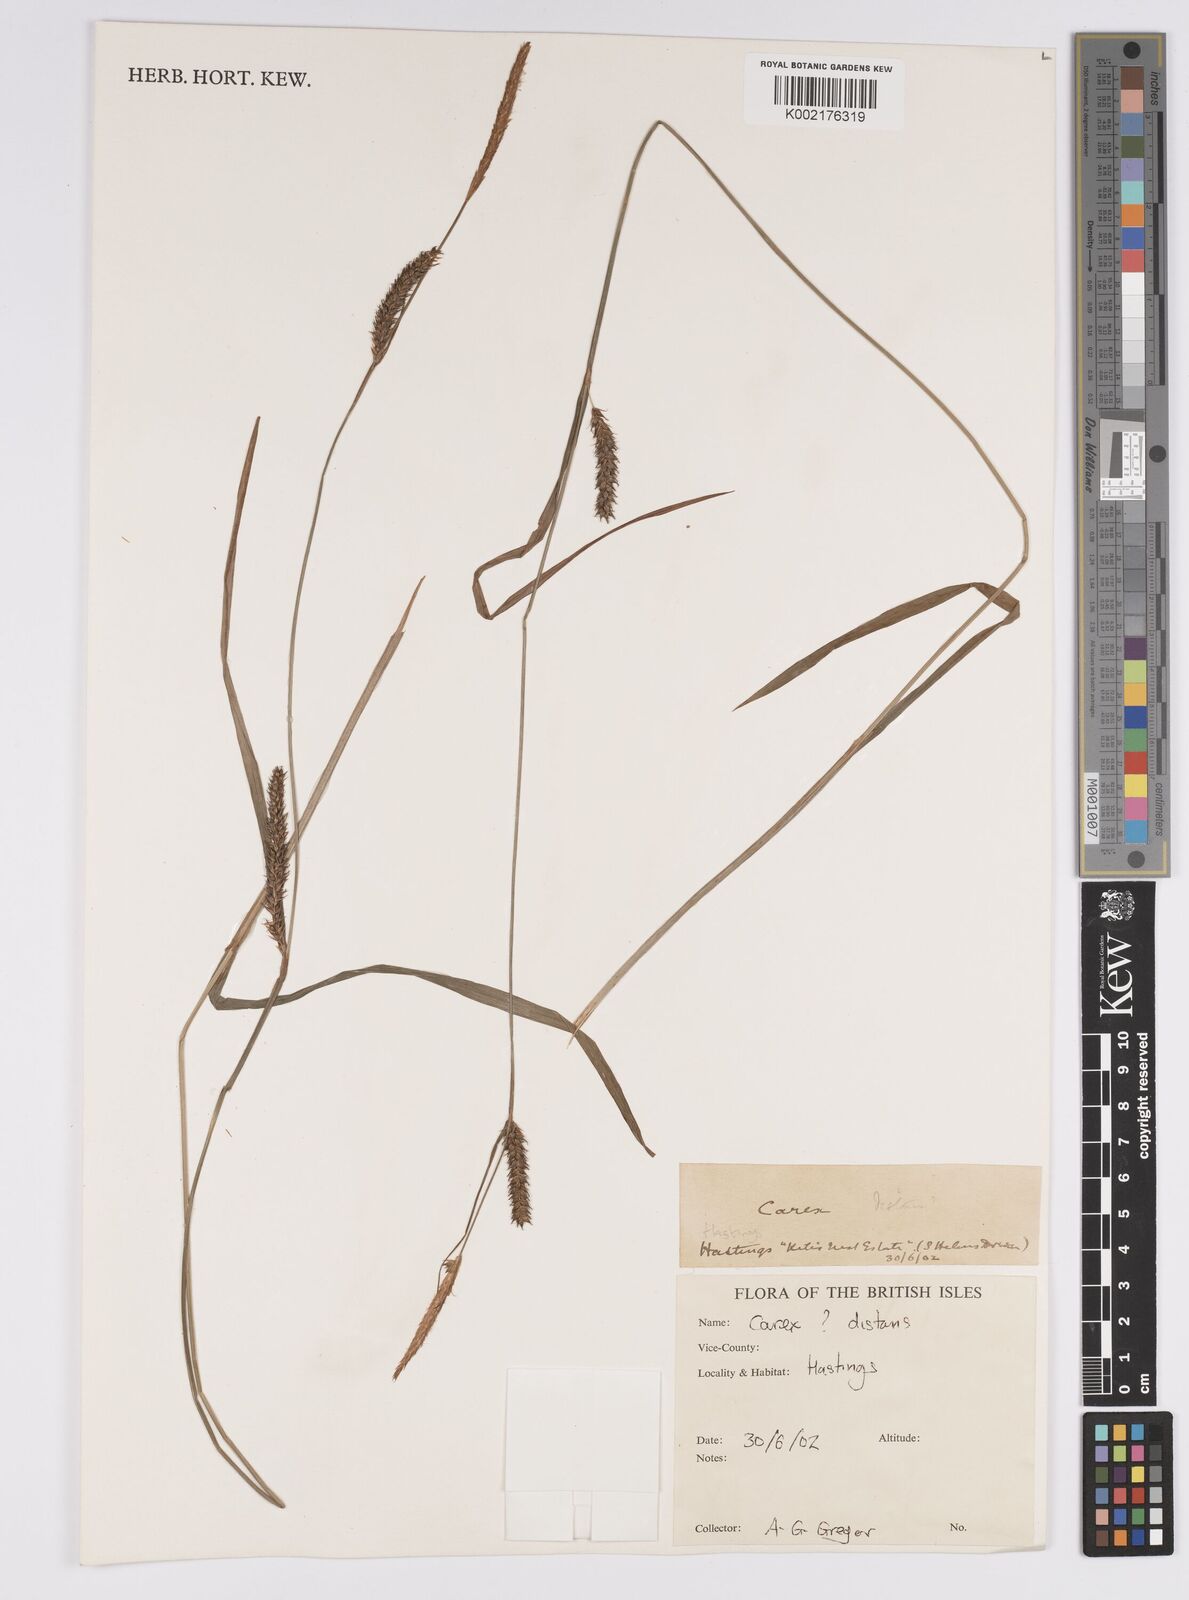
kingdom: Plantae
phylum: Tracheophyta
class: Liliopsida
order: Poales
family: Cyperaceae
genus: Carex
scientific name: Carex distans
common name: Distant sedge
